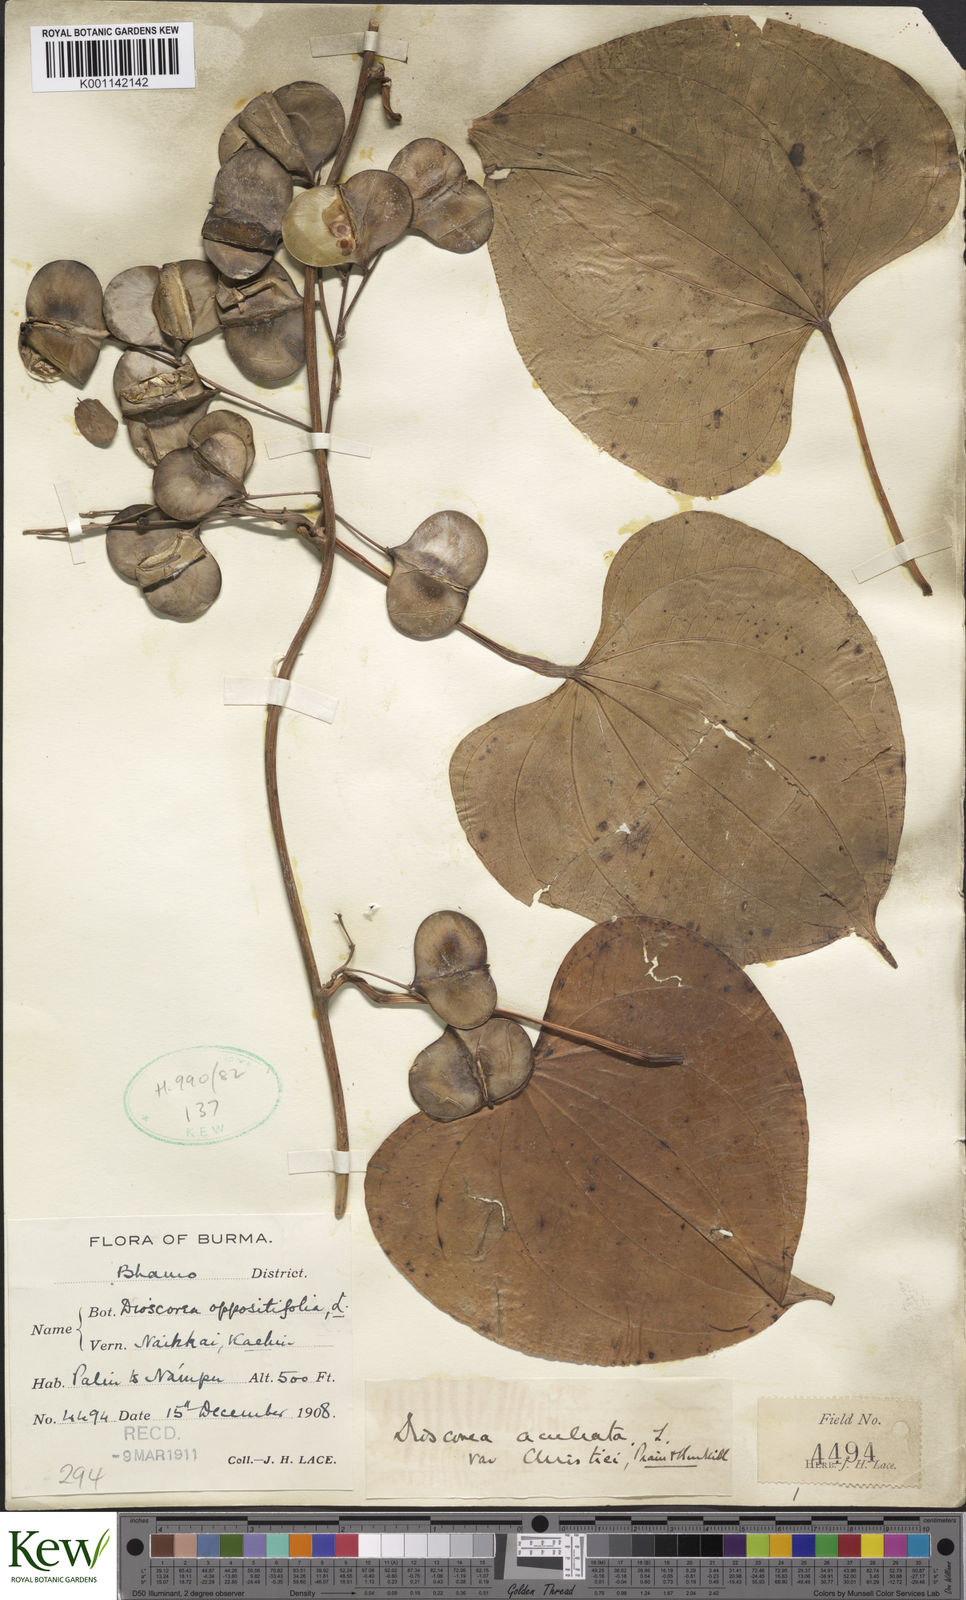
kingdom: Plantae
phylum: Tracheophyta
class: Liliopsida
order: Dioscoreales
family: Dioscoreaceae
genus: Dioscorea
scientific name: Dioscorea esculenta
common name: Chinese yam
